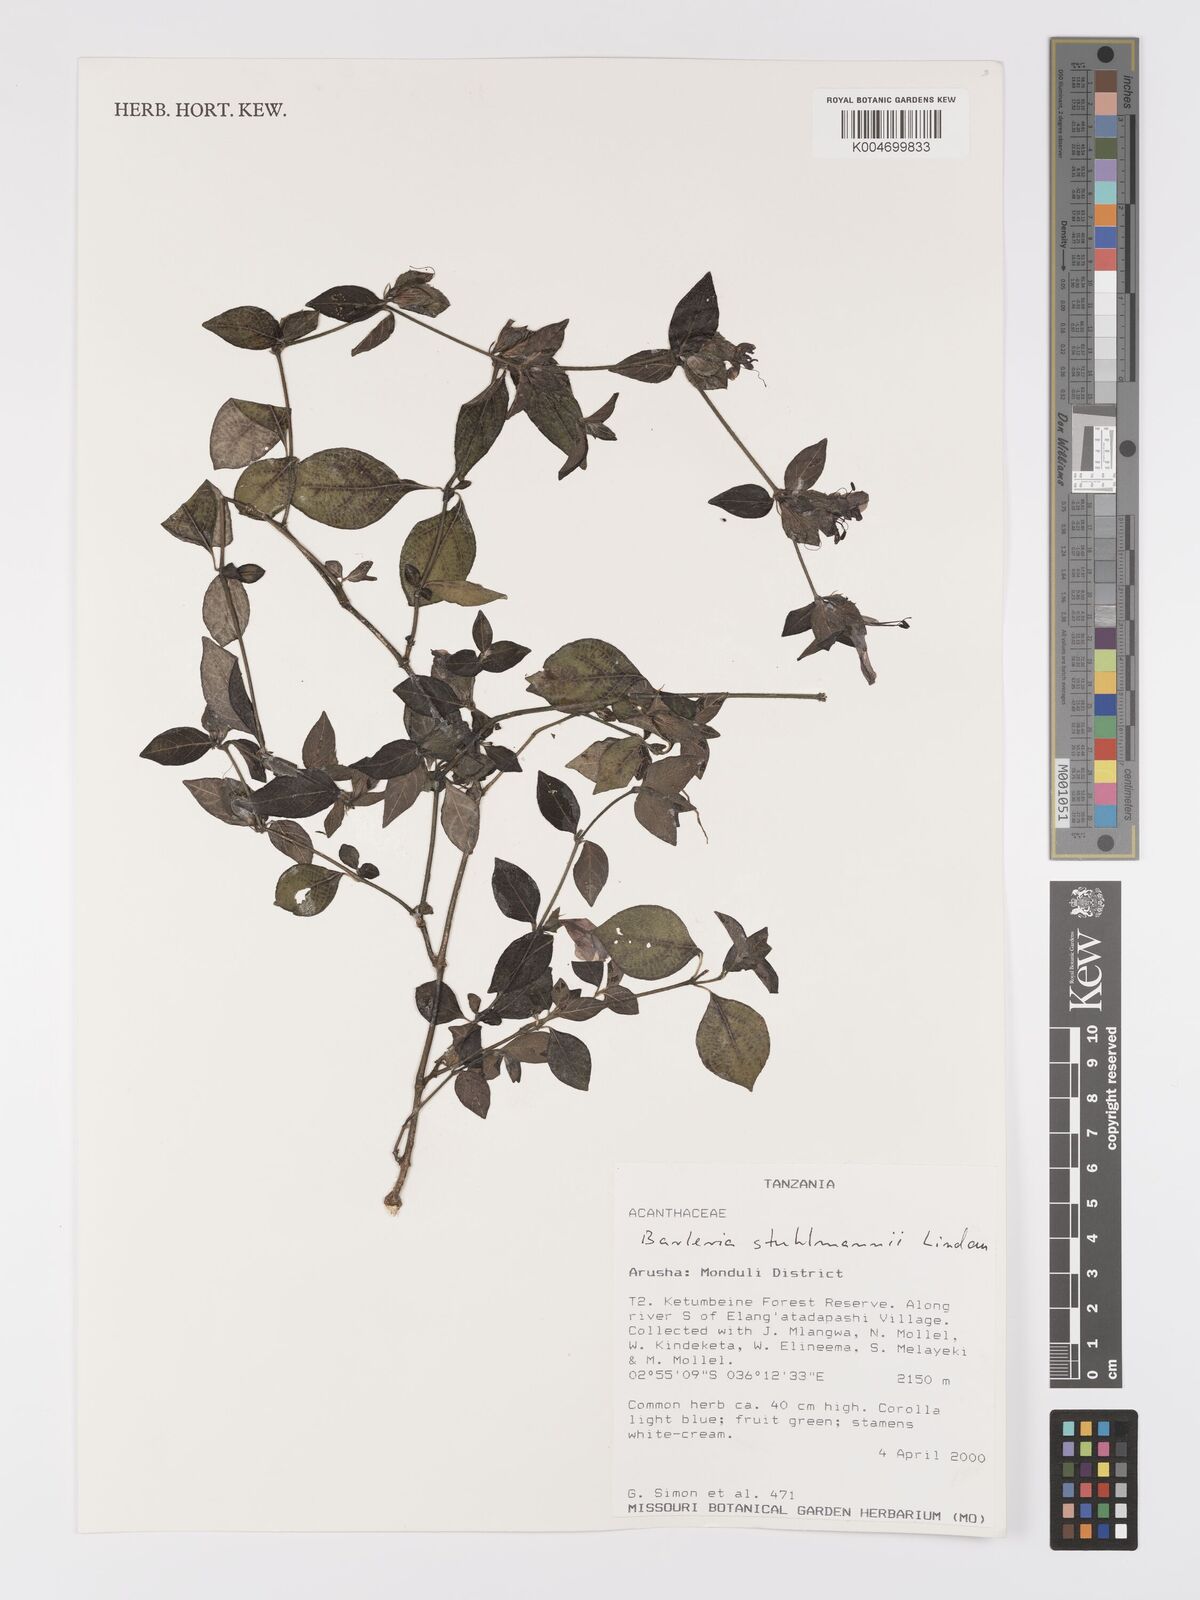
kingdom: Plantae
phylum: Tracheophyta
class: Magnoliopsida
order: Lamiales
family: Acanthaceae
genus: Barleria
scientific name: Barleria ventricosa
